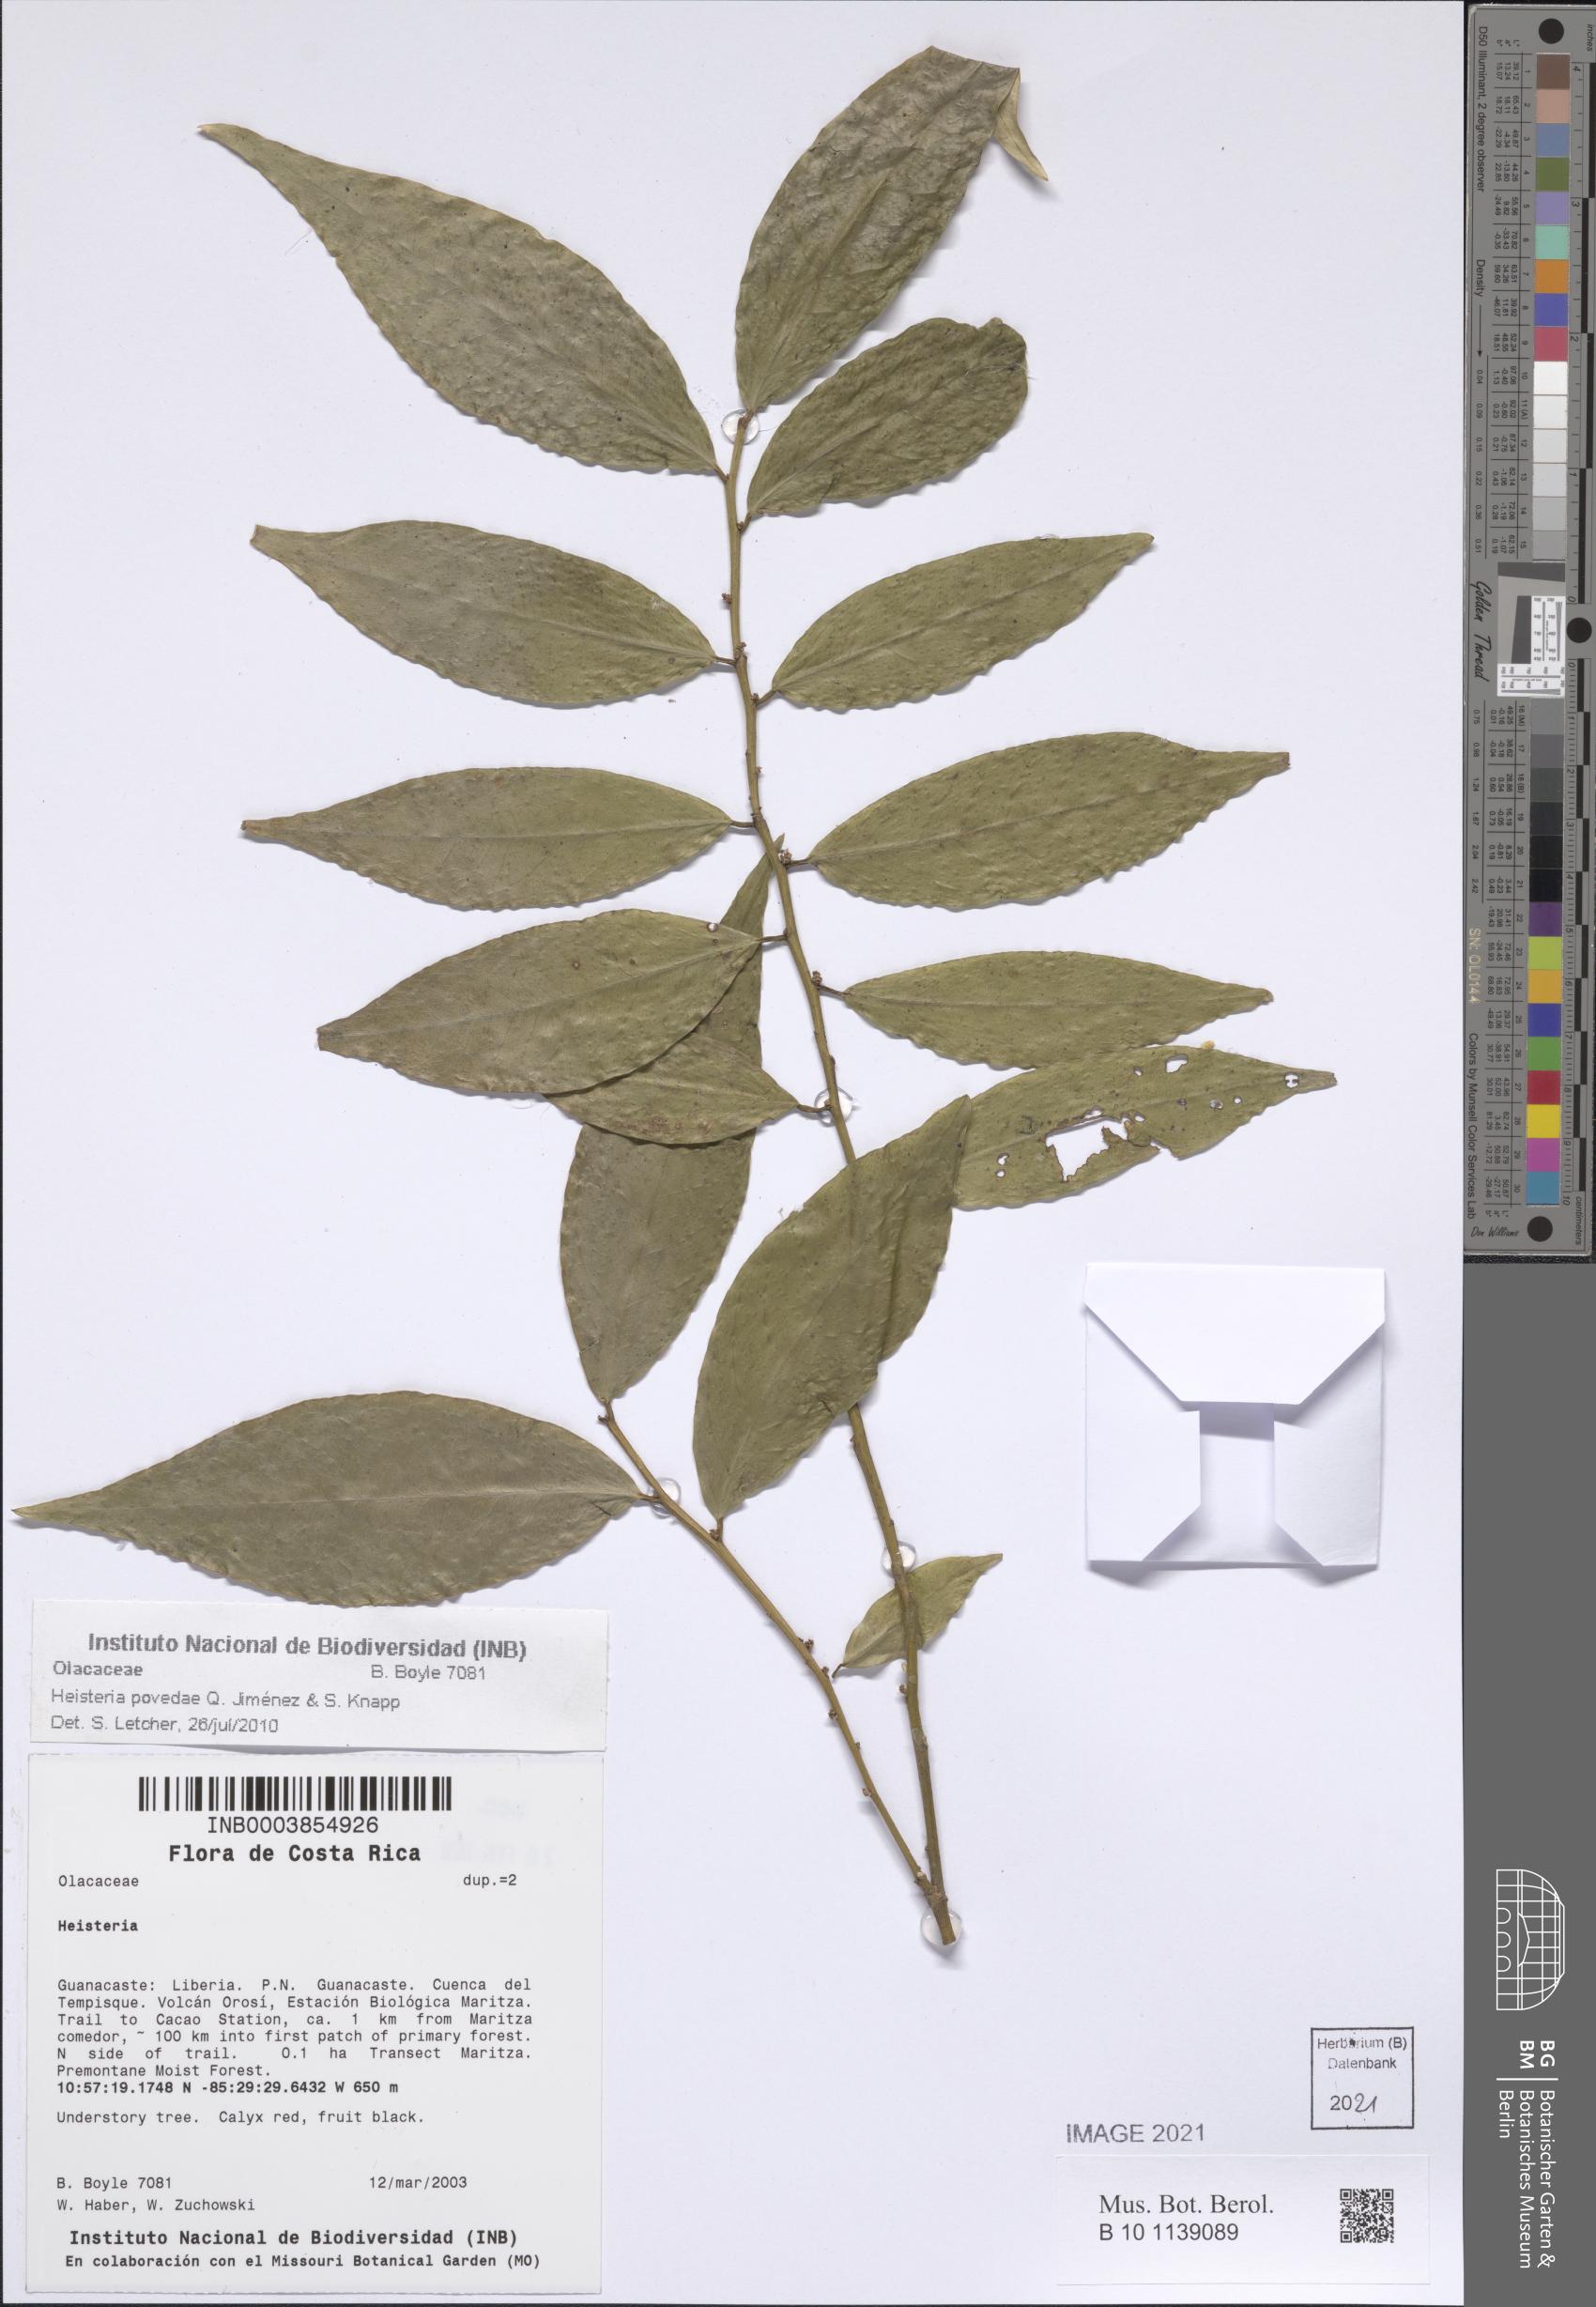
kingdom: Plantae
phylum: Tracheophyta
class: Magnoliopsida
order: Santalales
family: Erythropalaceae
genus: Heisteria
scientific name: Heisteria povedae
